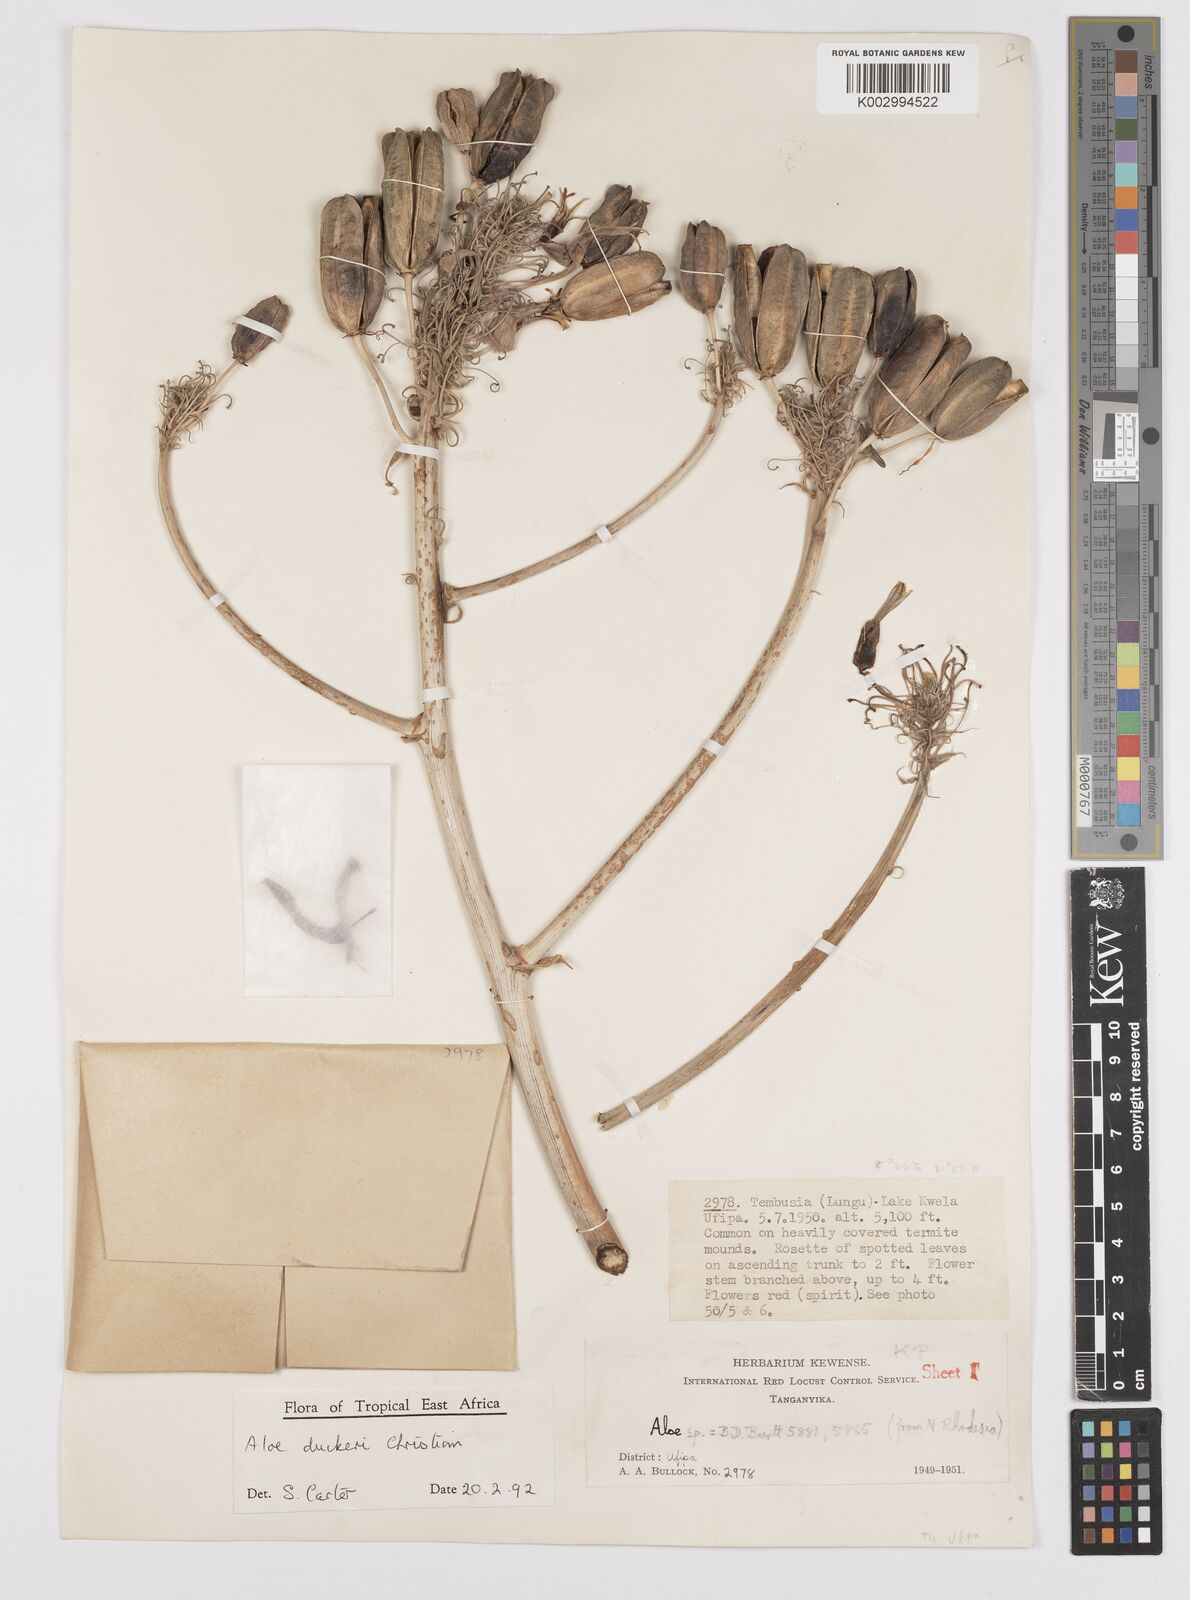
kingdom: Plantae
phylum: Tracheophyta
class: Liliopsida
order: Asparagales
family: Asphodelaceae
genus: Aloe
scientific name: Aloe duckeri
